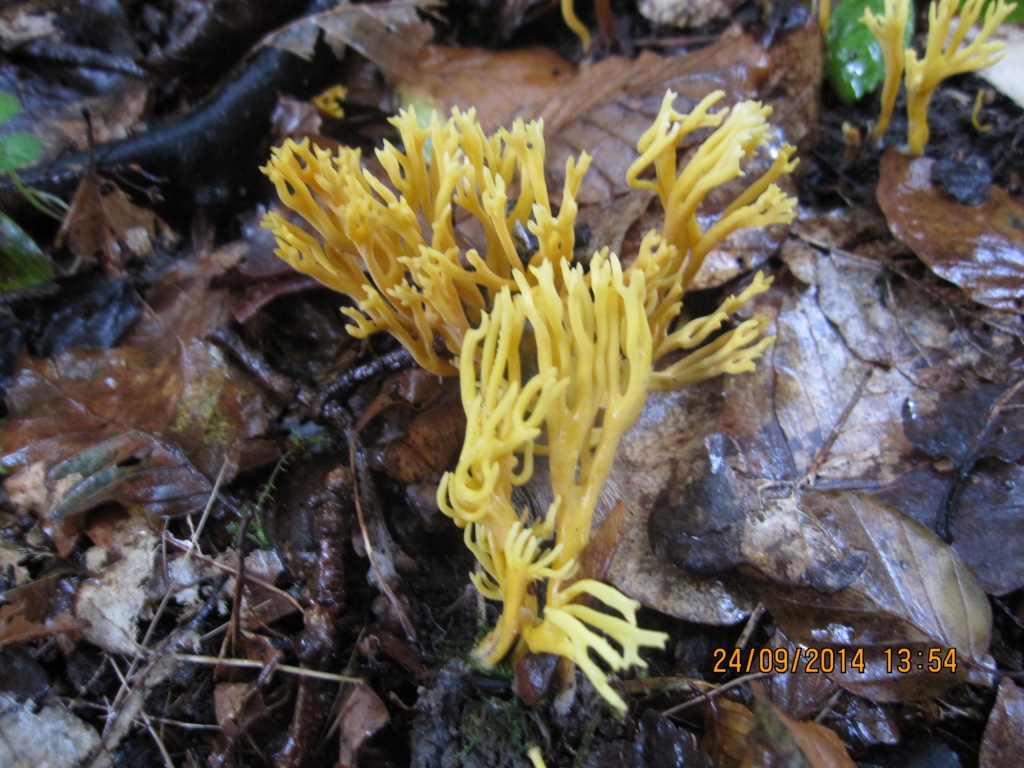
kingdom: Fungi
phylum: Basidiomycota
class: Agaricomycetes
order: Agaricales
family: Clavariaceae
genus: Clavulinopsis
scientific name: Clavulinopsis corniculata
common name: eng-køllesvamp
